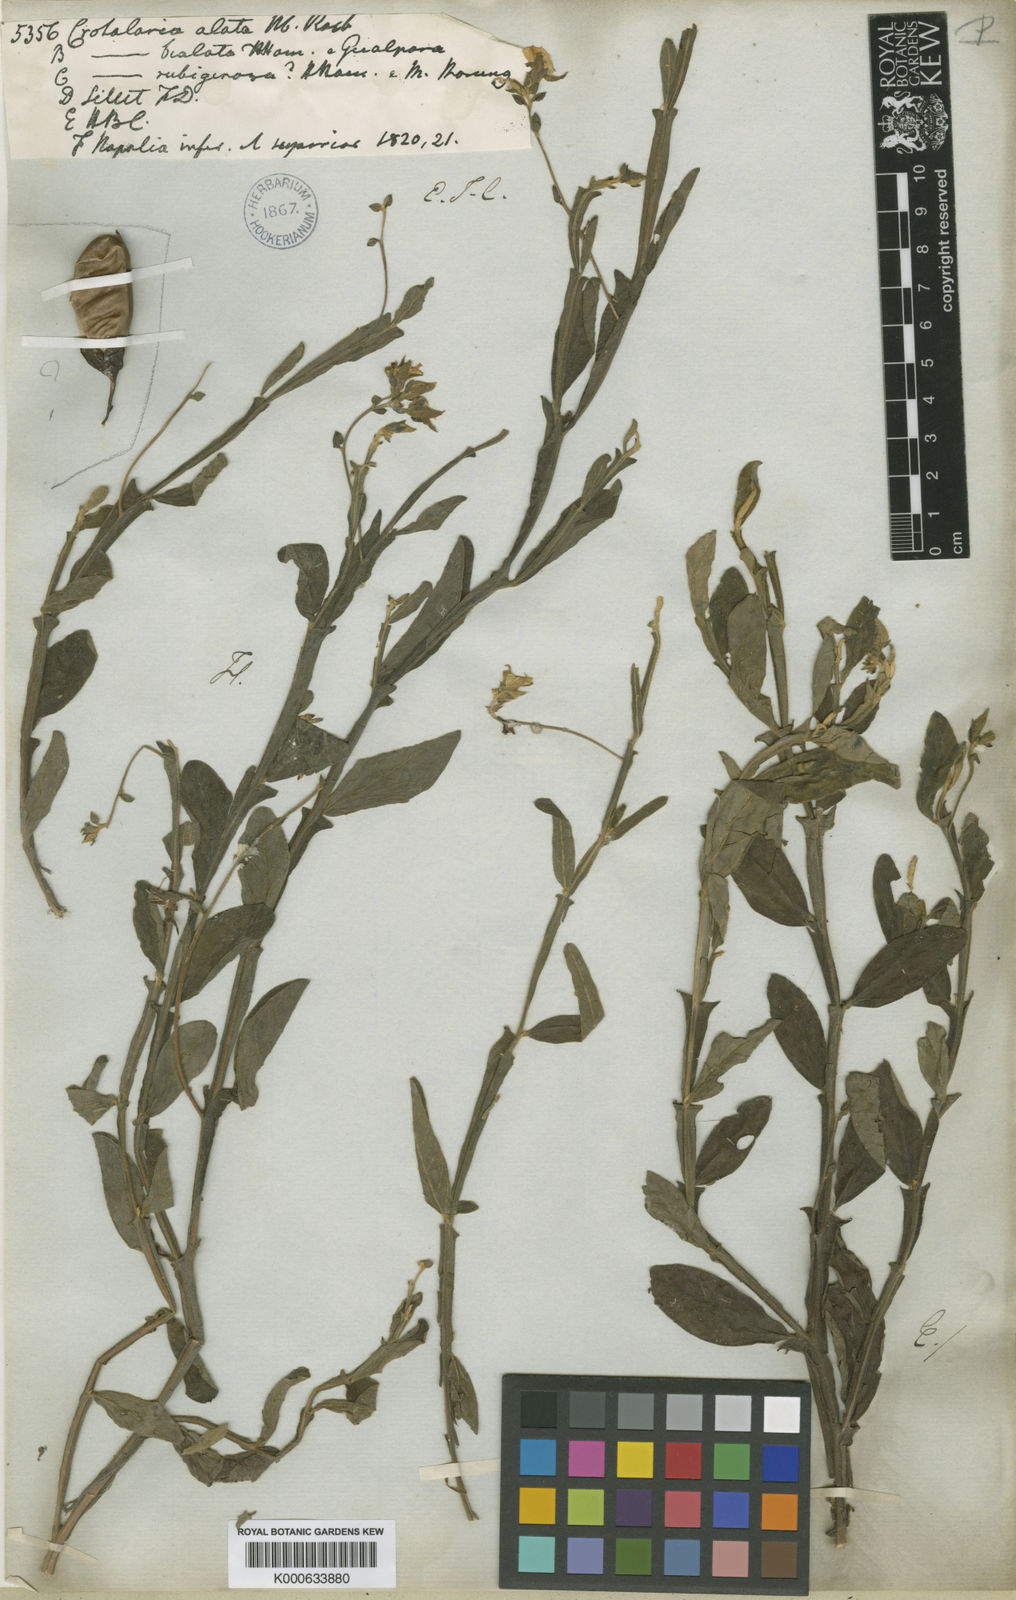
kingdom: Plantae
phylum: Tracheophyta
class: Magnoliopsida
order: Fabales
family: Fabaceae
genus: Crotalaria
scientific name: Crotalaria
